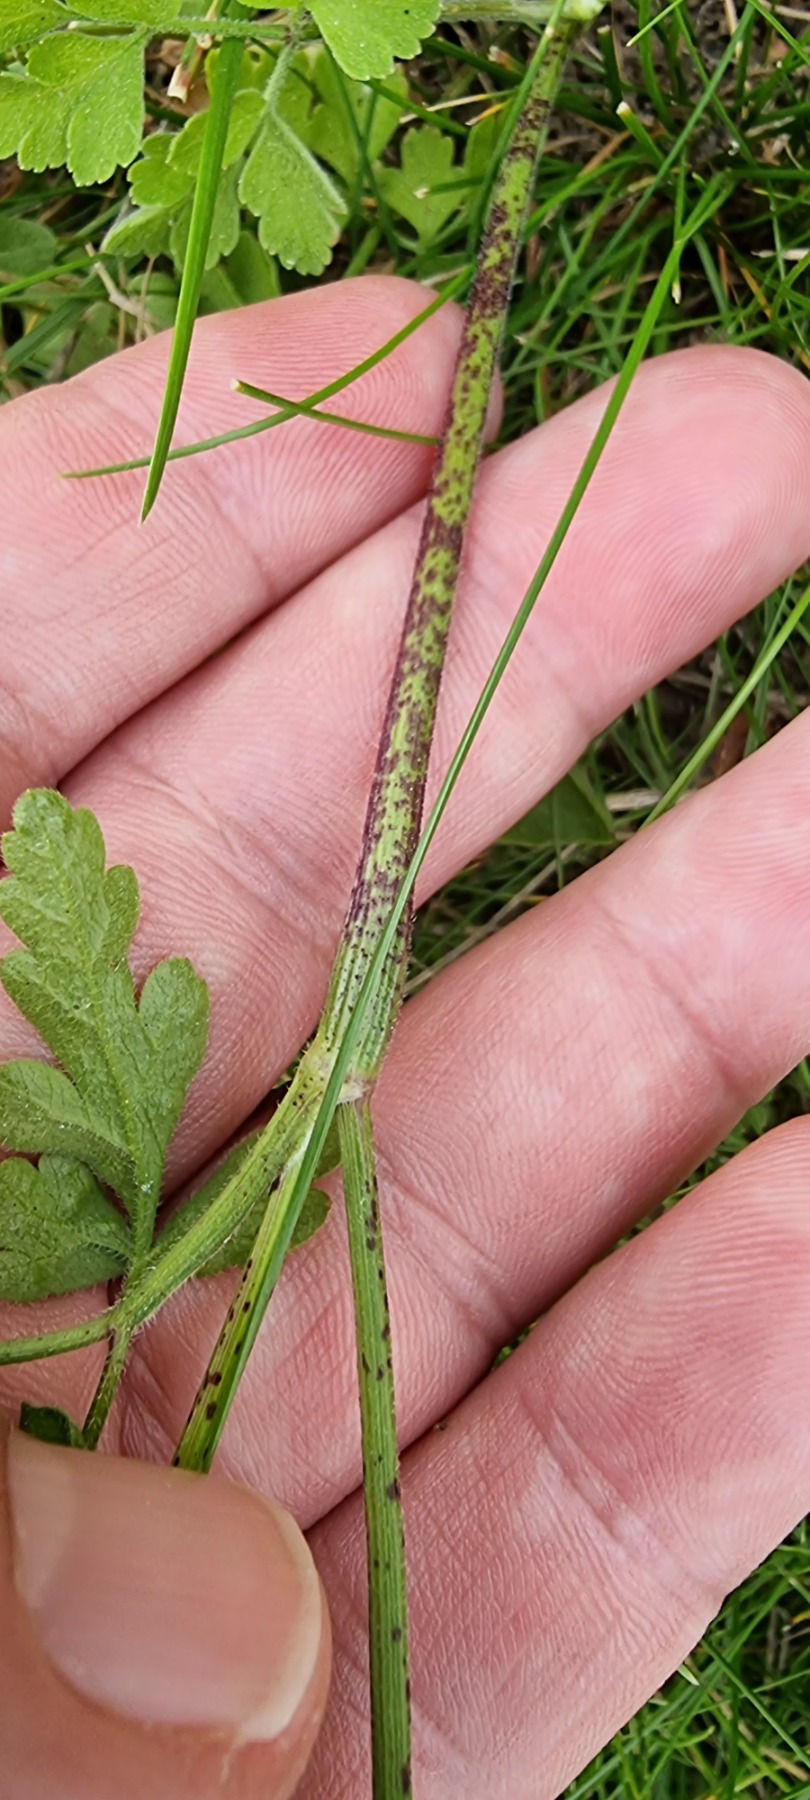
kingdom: Plantae
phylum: Tracheophyta
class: Magnoliopsida
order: Apiales
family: Apiaceae
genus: Chaerophyllum
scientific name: Chaerophyllum temulum
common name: Almindelig hulsvøb
